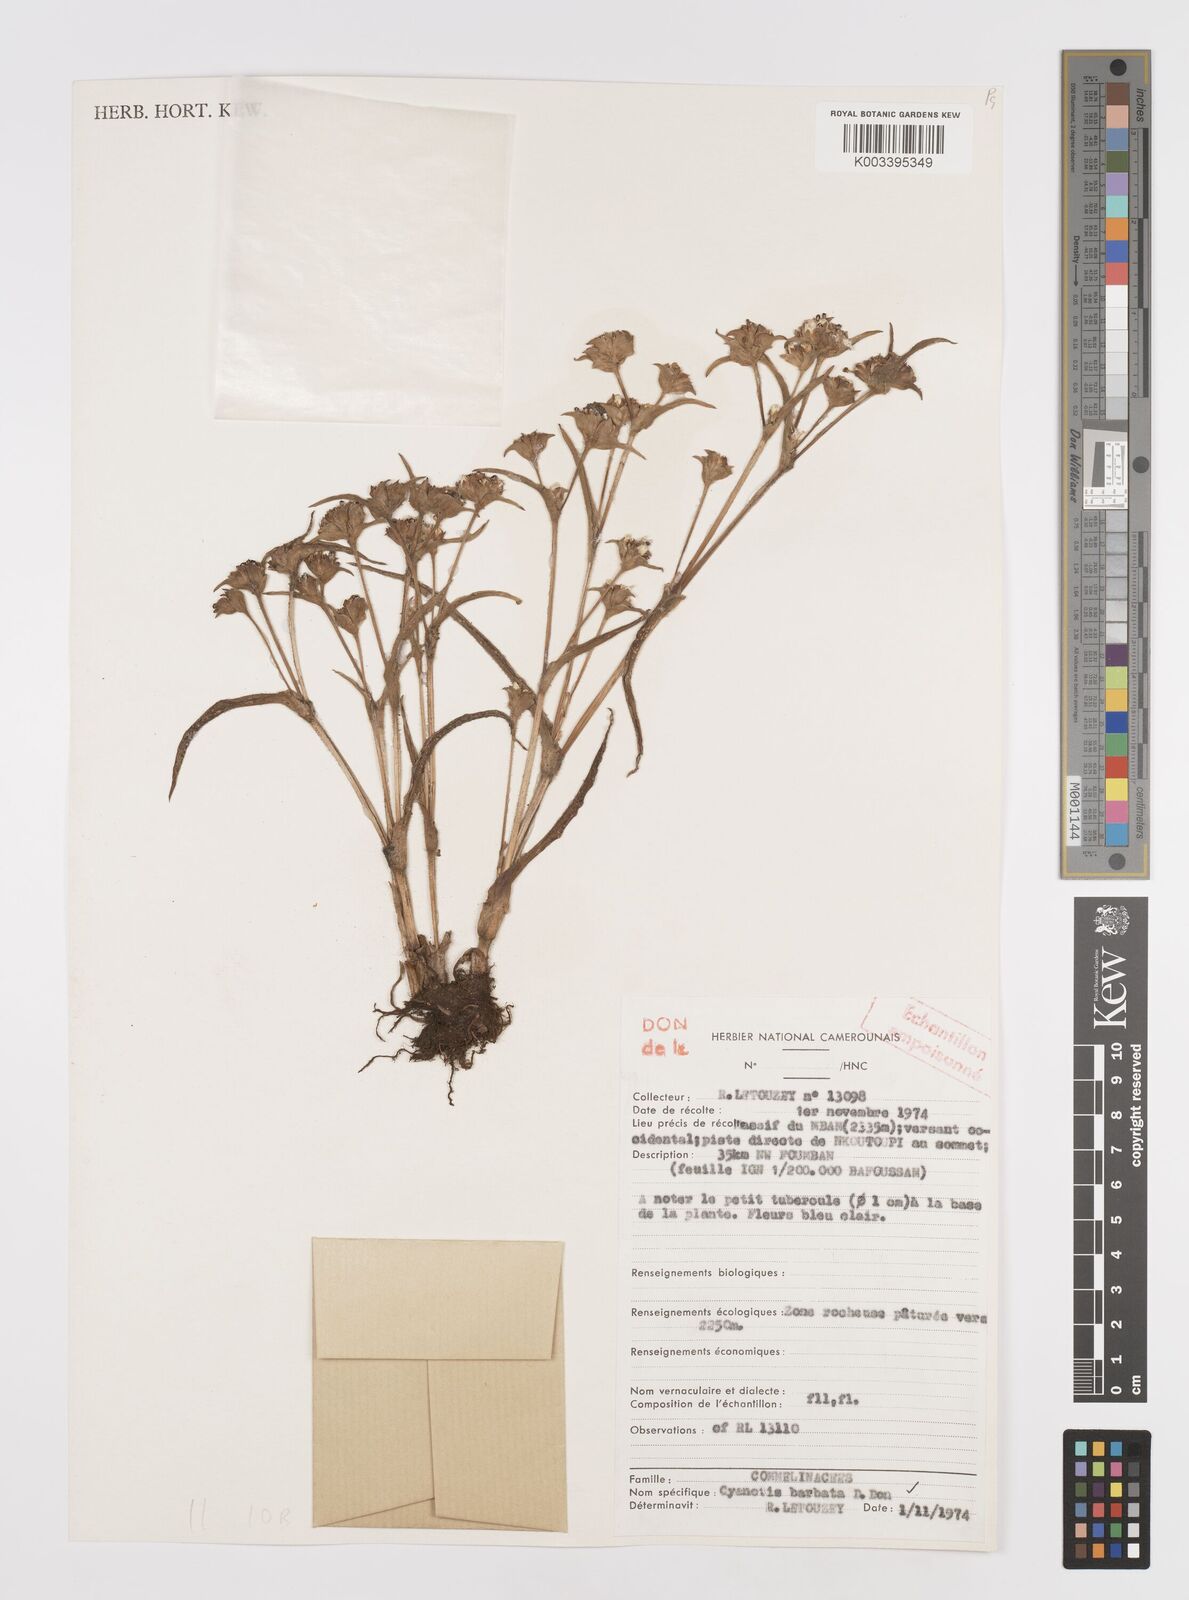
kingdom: Plantae
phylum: Tracheophyta
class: Liliopsida
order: Commelinales
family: Commelinaceae
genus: Cyanotis
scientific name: Cyanotis vaga
